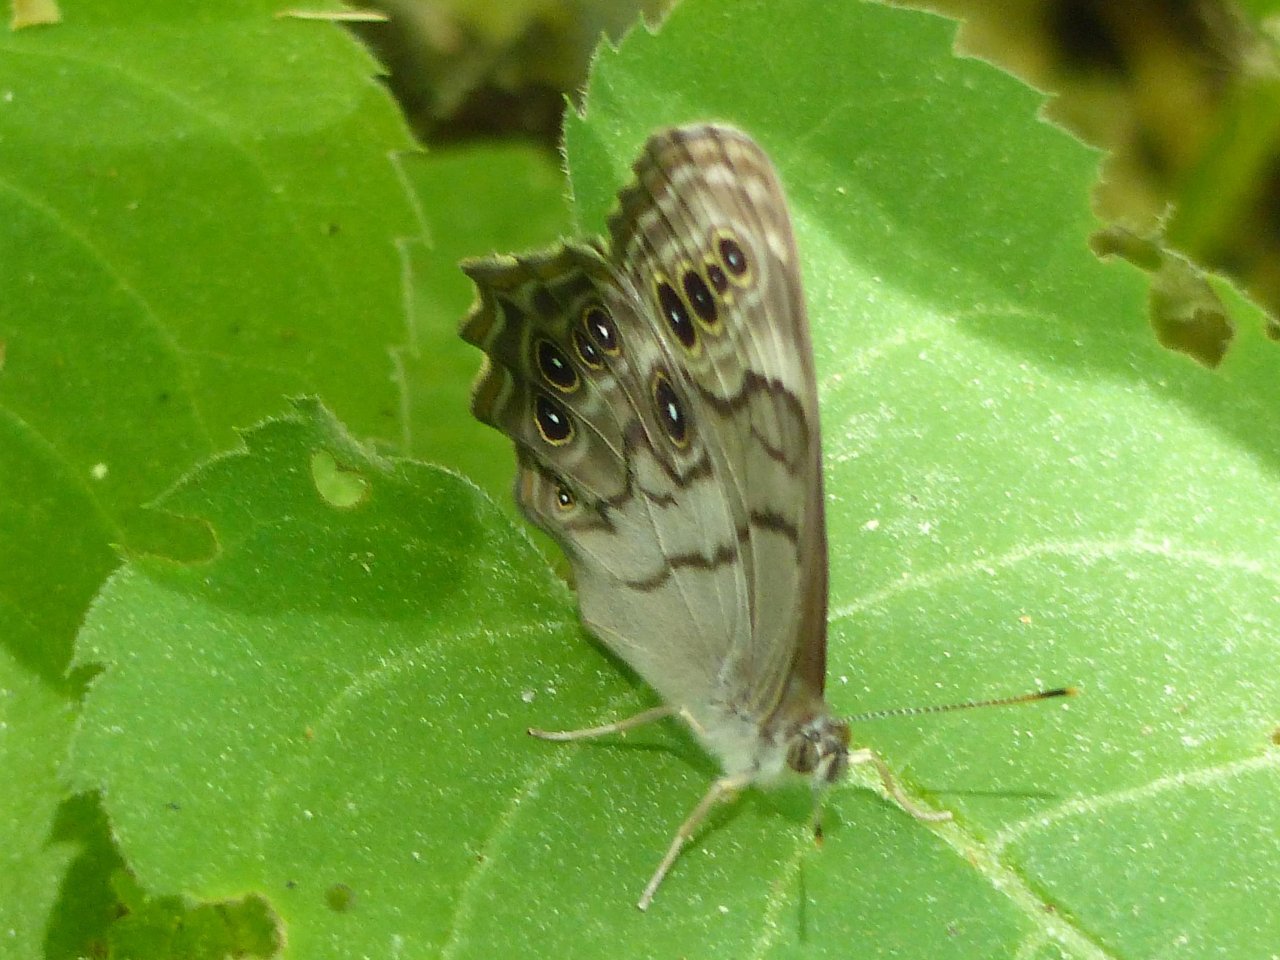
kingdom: Animalia
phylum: Arthropoda
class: Insecta
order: Lepidoptera
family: Nymphalidae
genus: Lethe
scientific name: Lethe anthedon
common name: Northern Pearly-Eye
